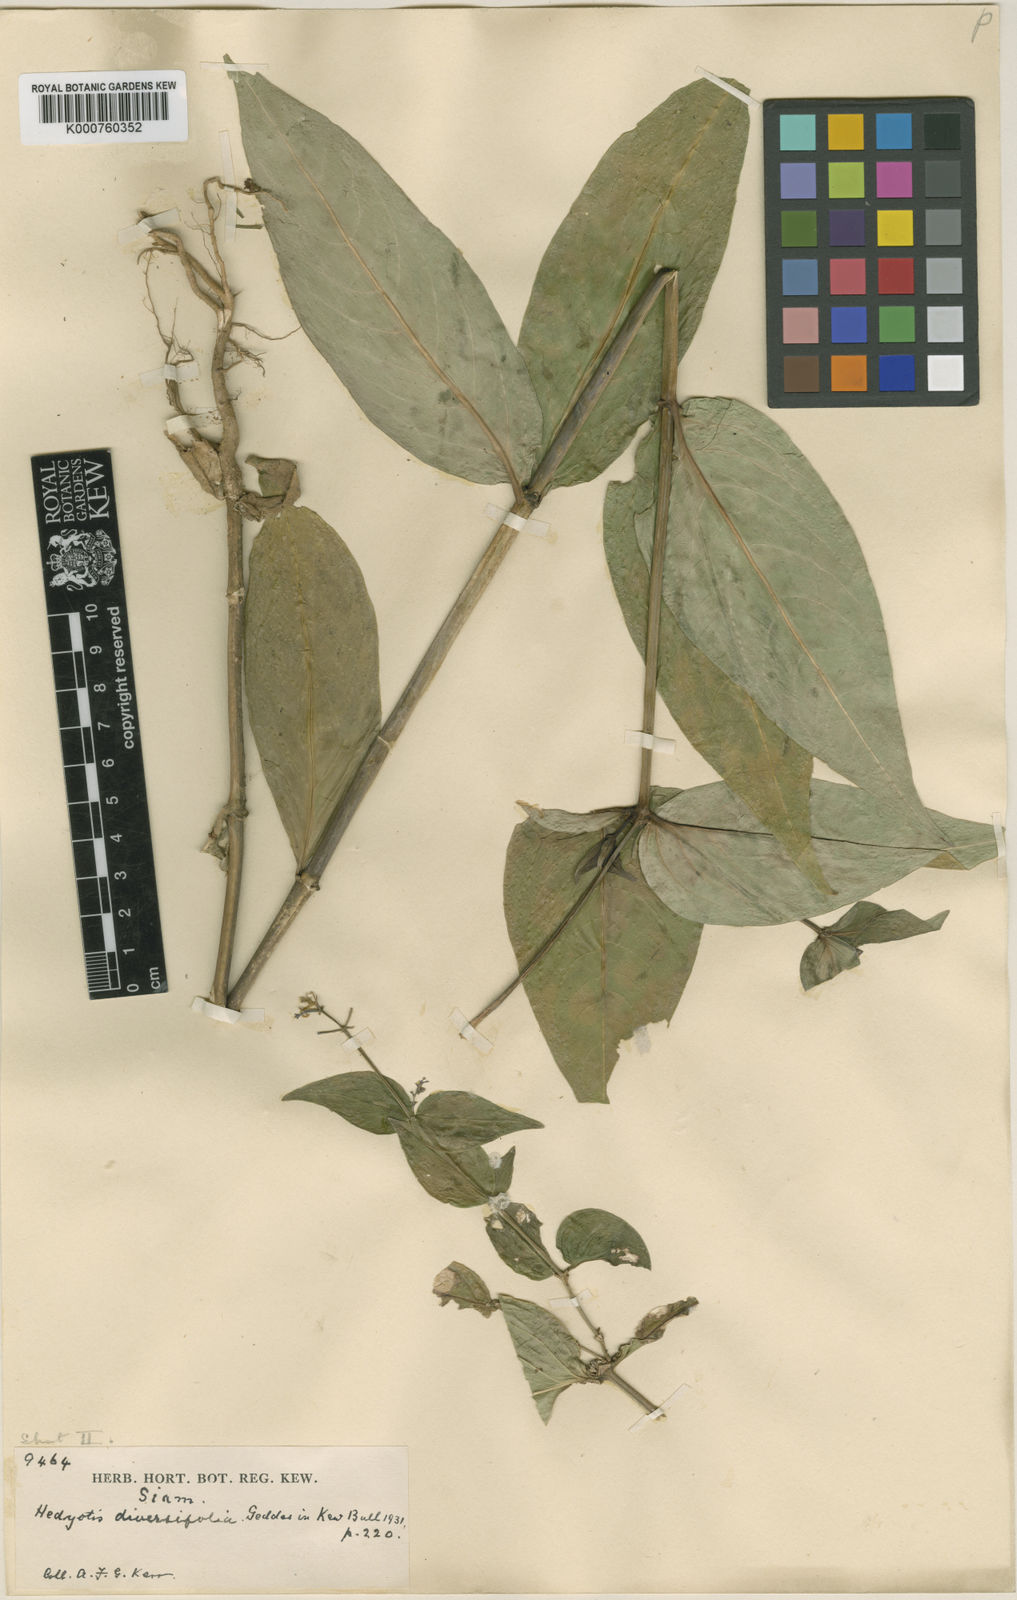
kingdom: Plantae
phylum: Tracheophyta
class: Magnoliopsida
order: Gentianales
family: Rubiaceae
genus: Hedyotis
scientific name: Hedyotis kamputensis
